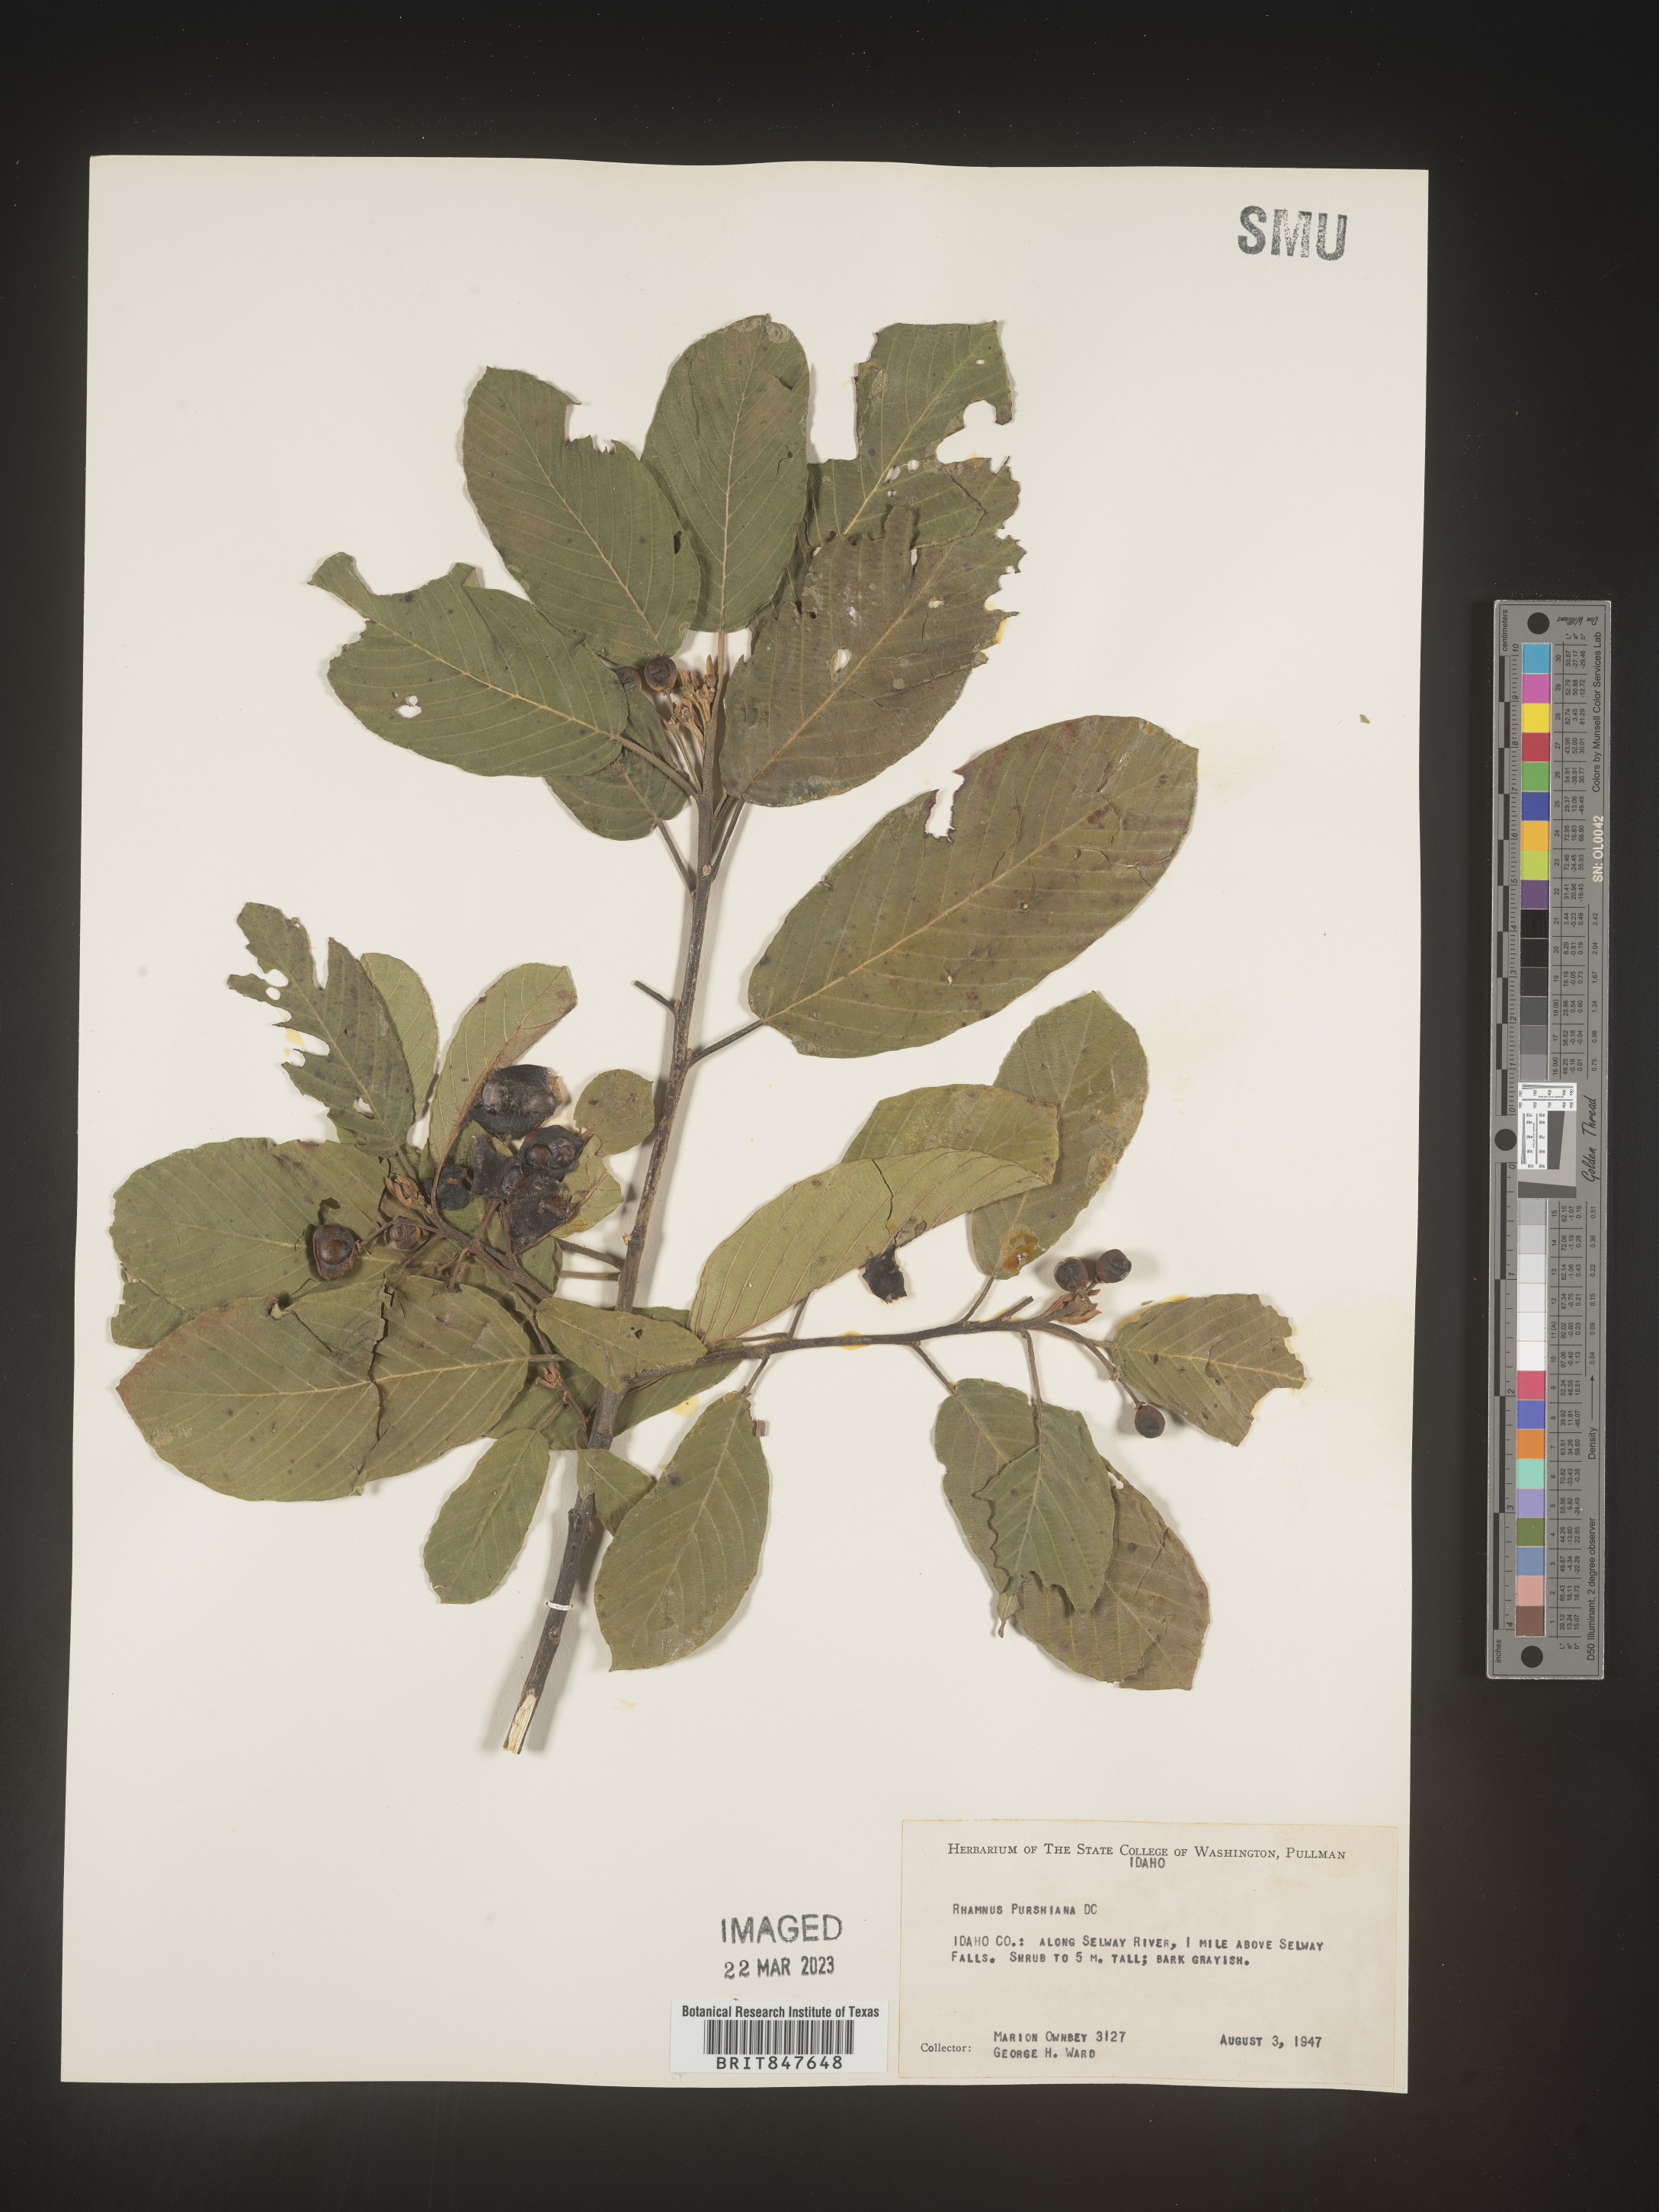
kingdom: Plantae
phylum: Tracheophyta
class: Magnoliopsida
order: Rosales
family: Rhamnaceae
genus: Frangula
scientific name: Frangula purshiana
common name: Cascara buckthorn
